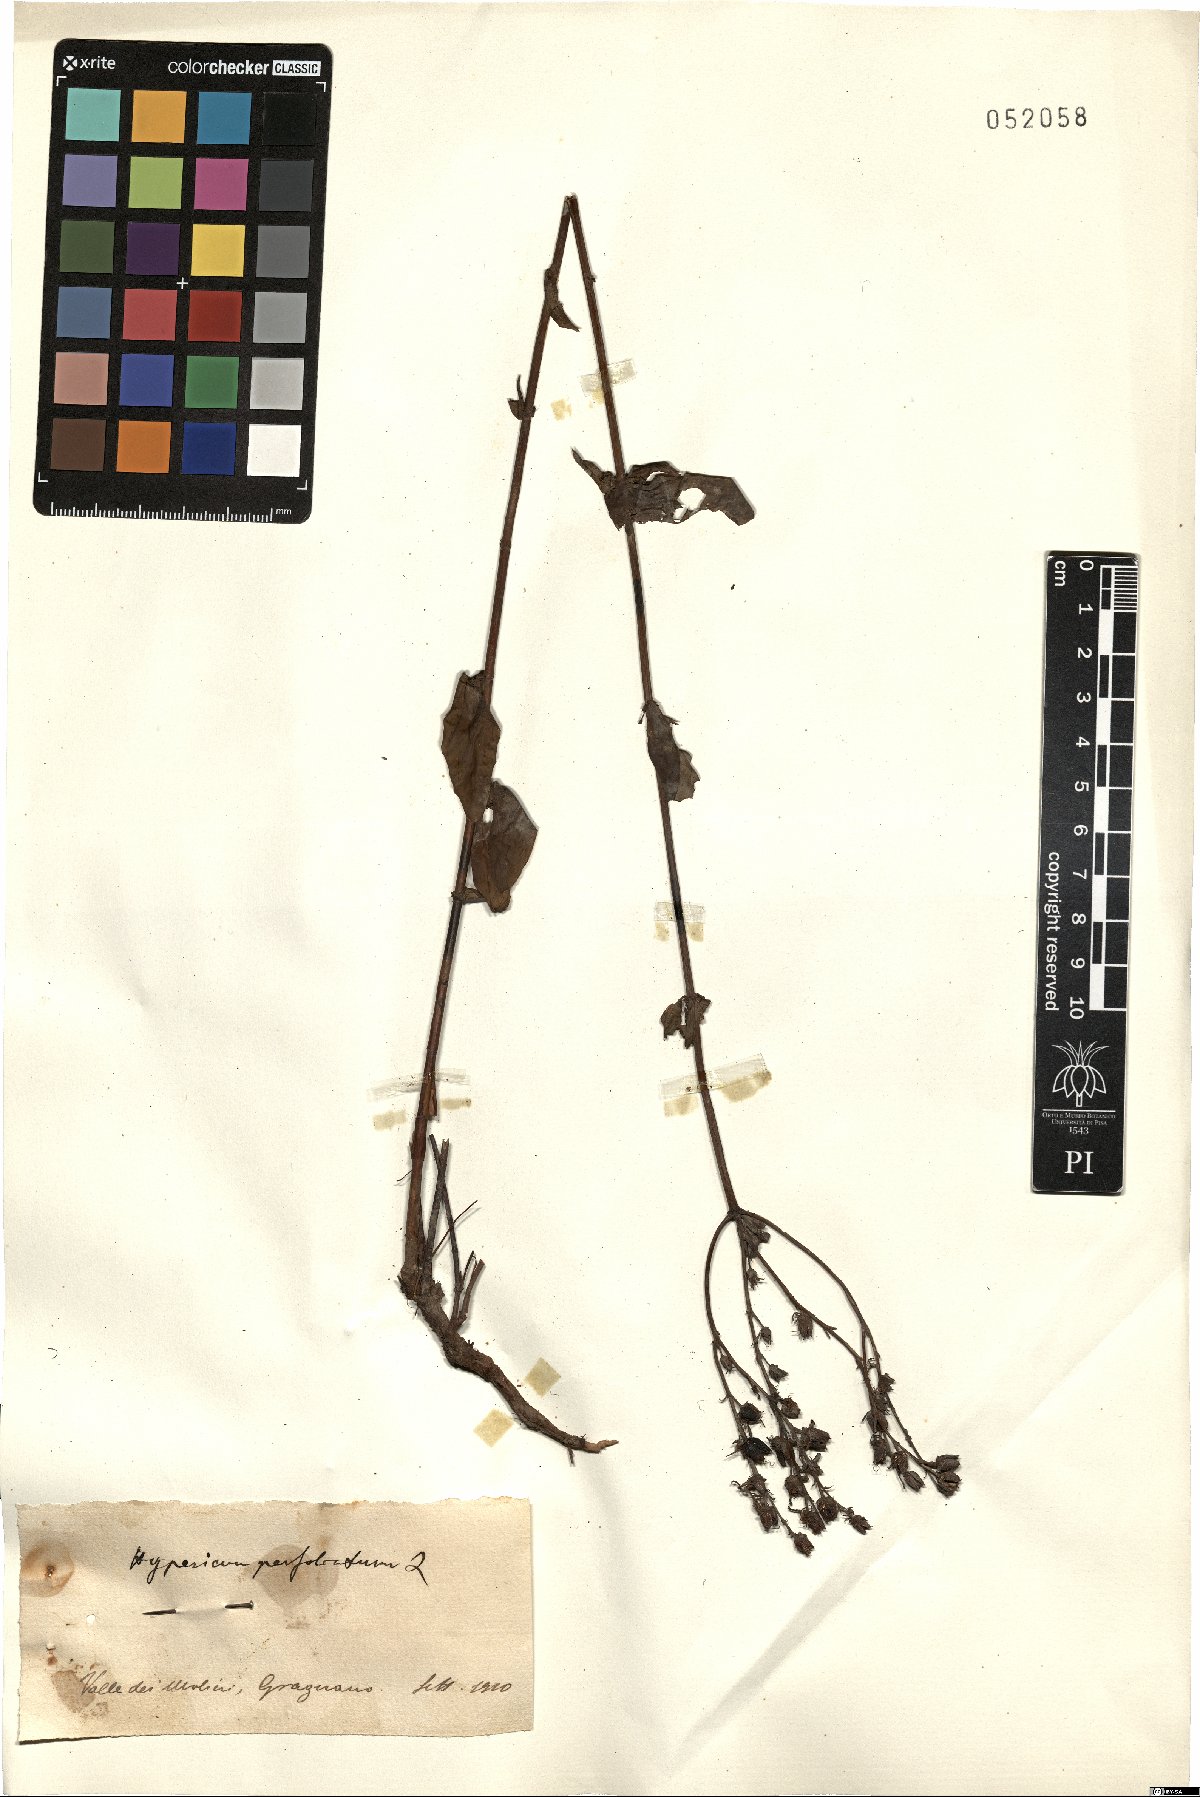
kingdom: Plantae
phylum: Tracheophyta
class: Magnoliopsida
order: Malpighiales
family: Hypericaceae
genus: Hypericum
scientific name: Hypericum perfoliatum
